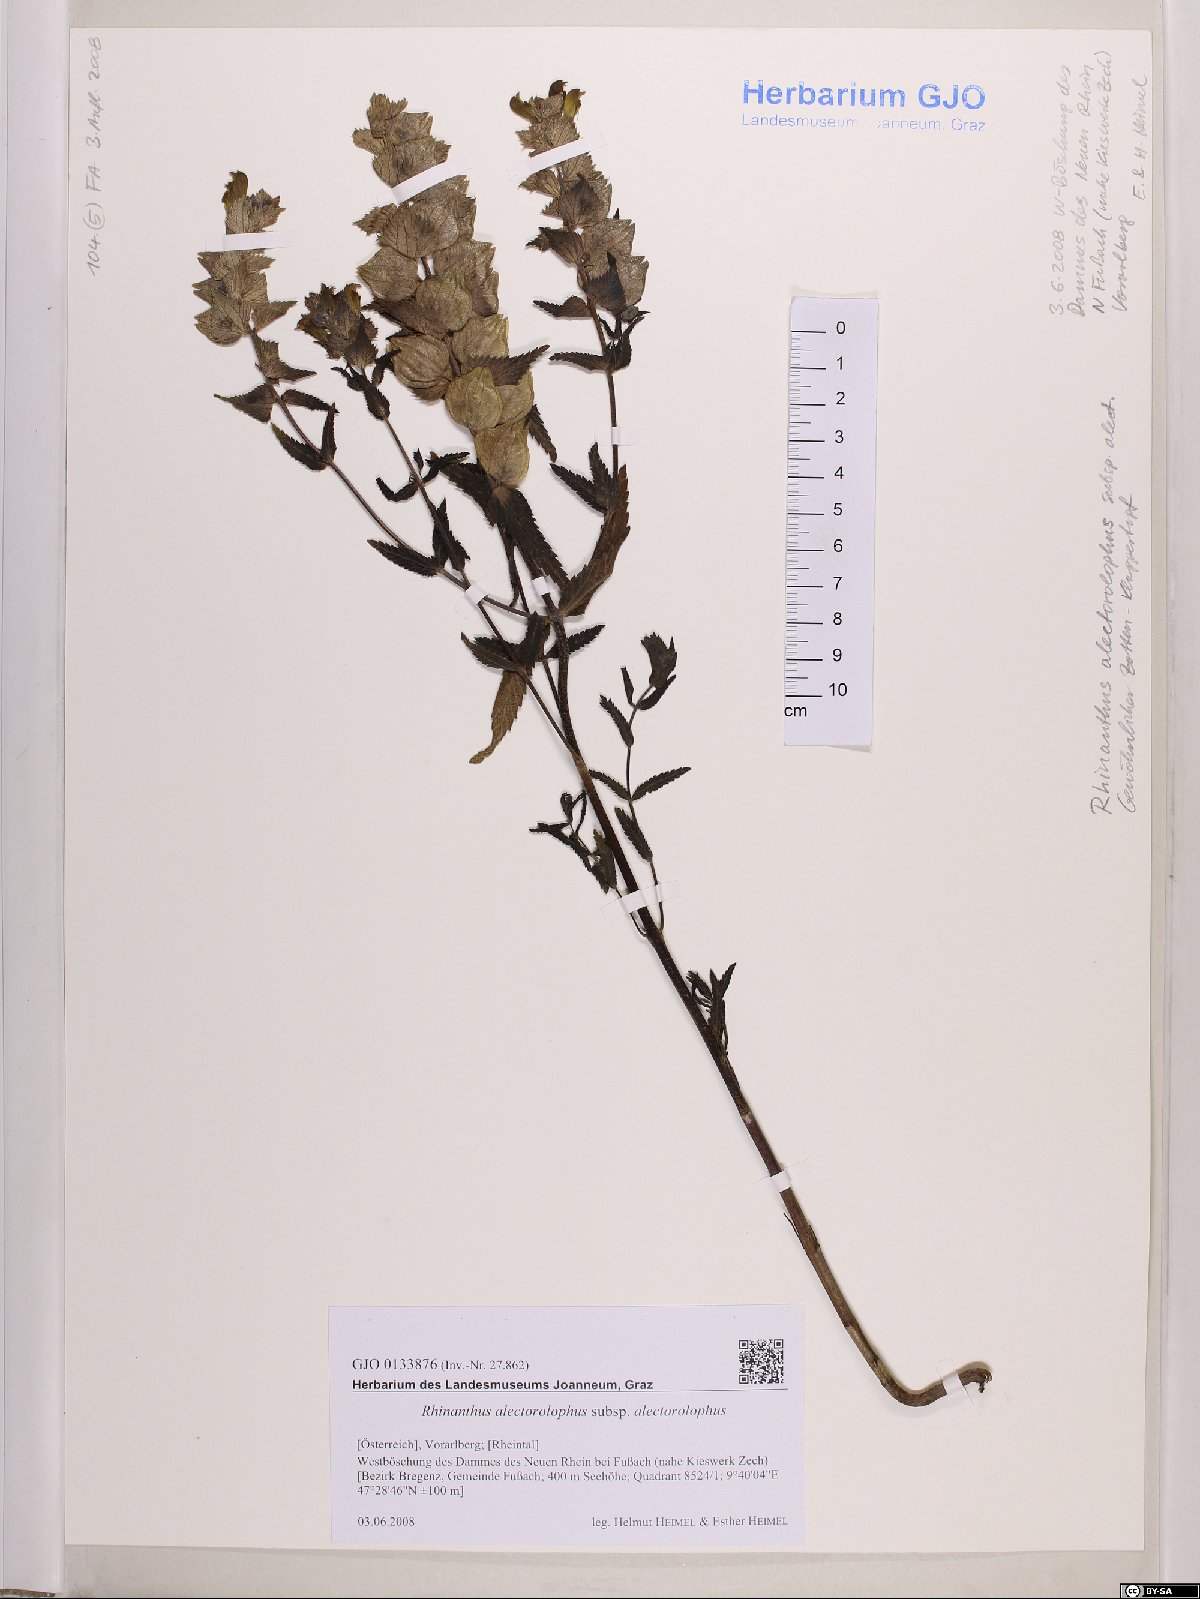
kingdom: Plantae
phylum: Tracheophyta
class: Magnoliopsida
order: Lamiales
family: Orobanchaceae
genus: Rhinanthus
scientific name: Rhinanthus alectorolophus
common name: Greater yellow-rattle
